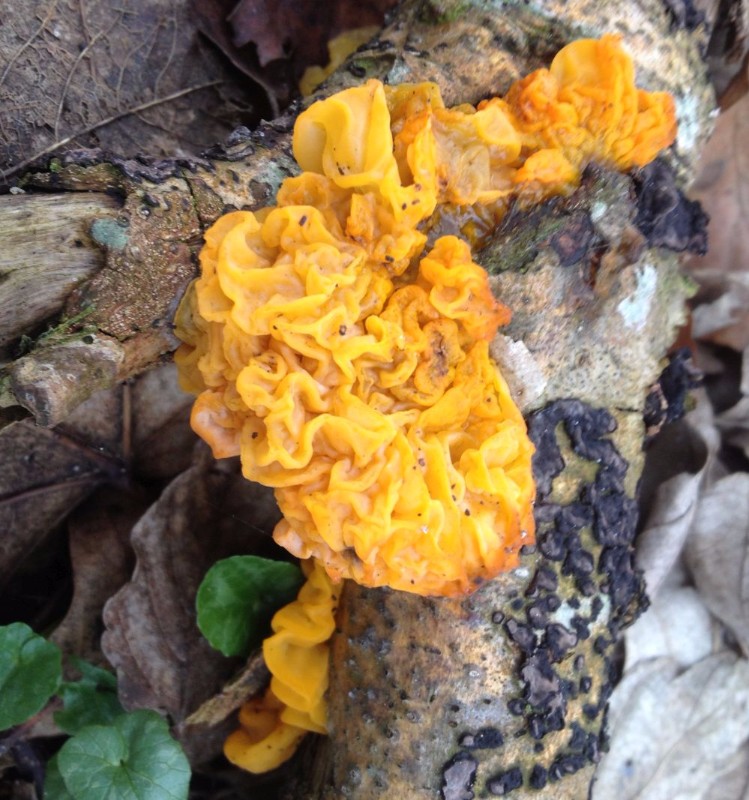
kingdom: Fungi
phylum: Basidiomycota
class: Tremellomycetes
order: Tremellales
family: Tremellaceae
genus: Tremella
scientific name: Tremella mesenterica
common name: gul bævresvamp
